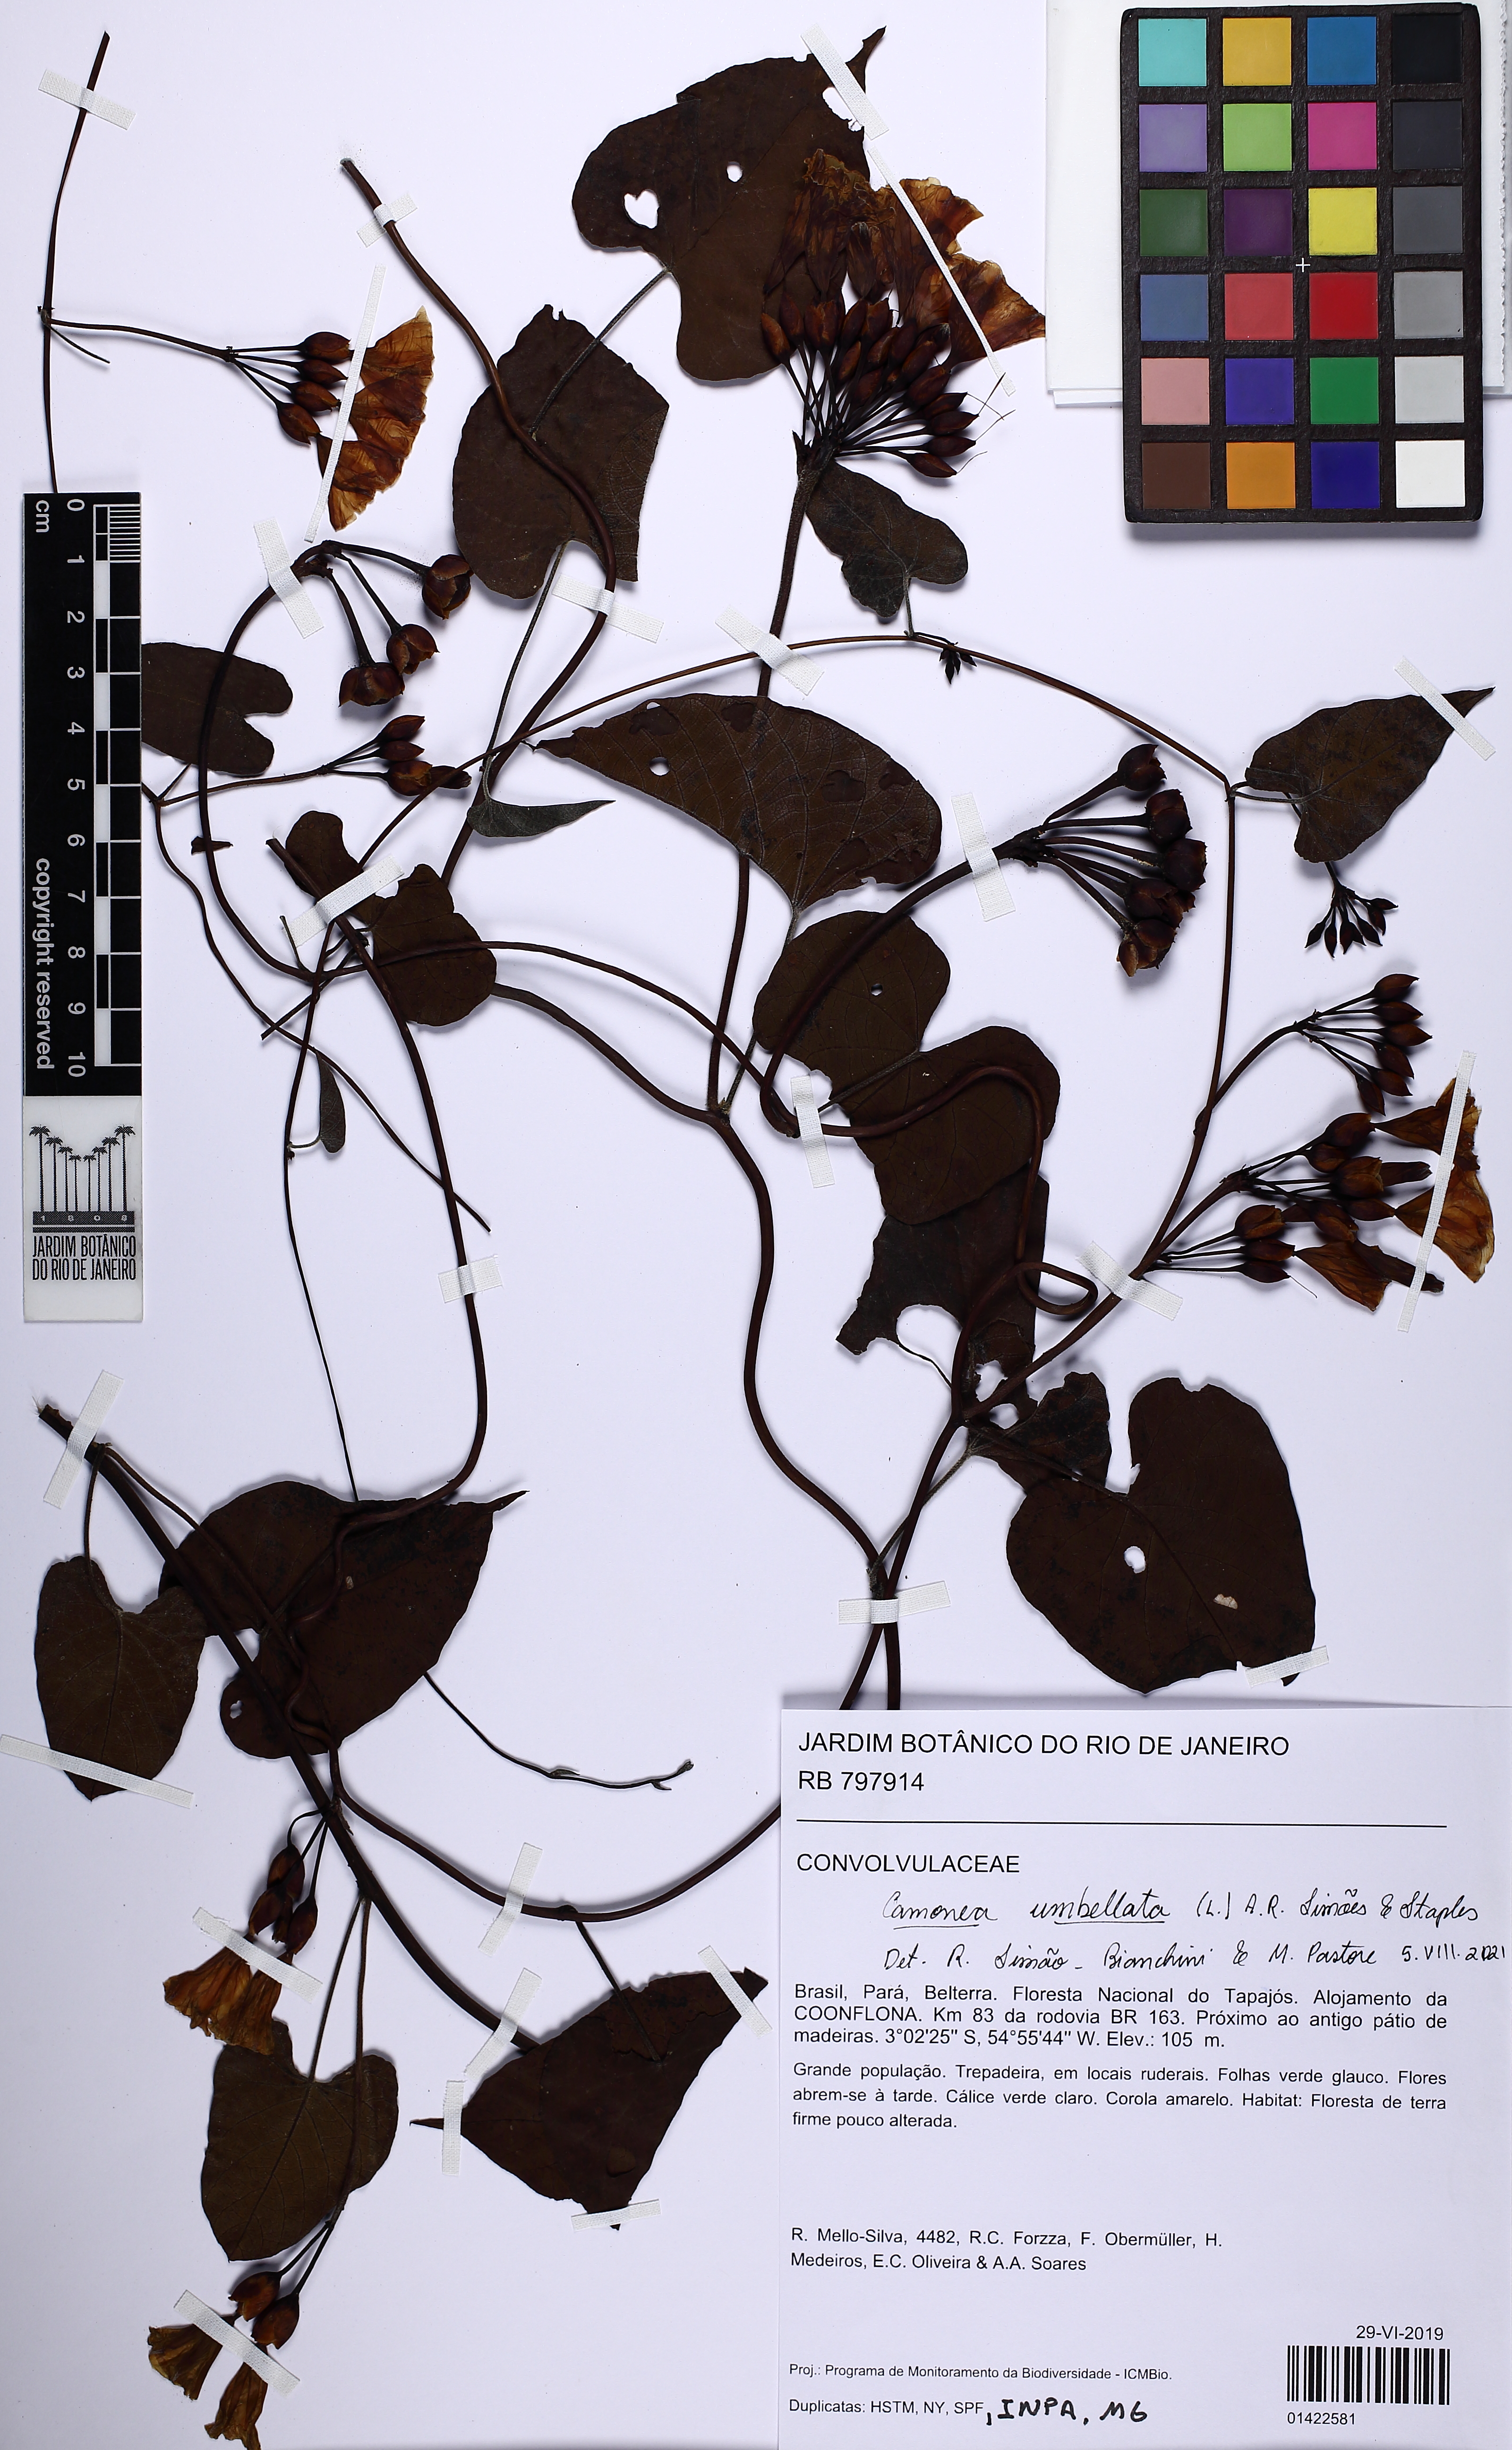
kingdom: Plantae
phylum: Tracheophyta
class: Magnoliopsida
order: Solanales
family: Convolvulaceae
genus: Camonea
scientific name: Camonea umbellata
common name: Hogvine
